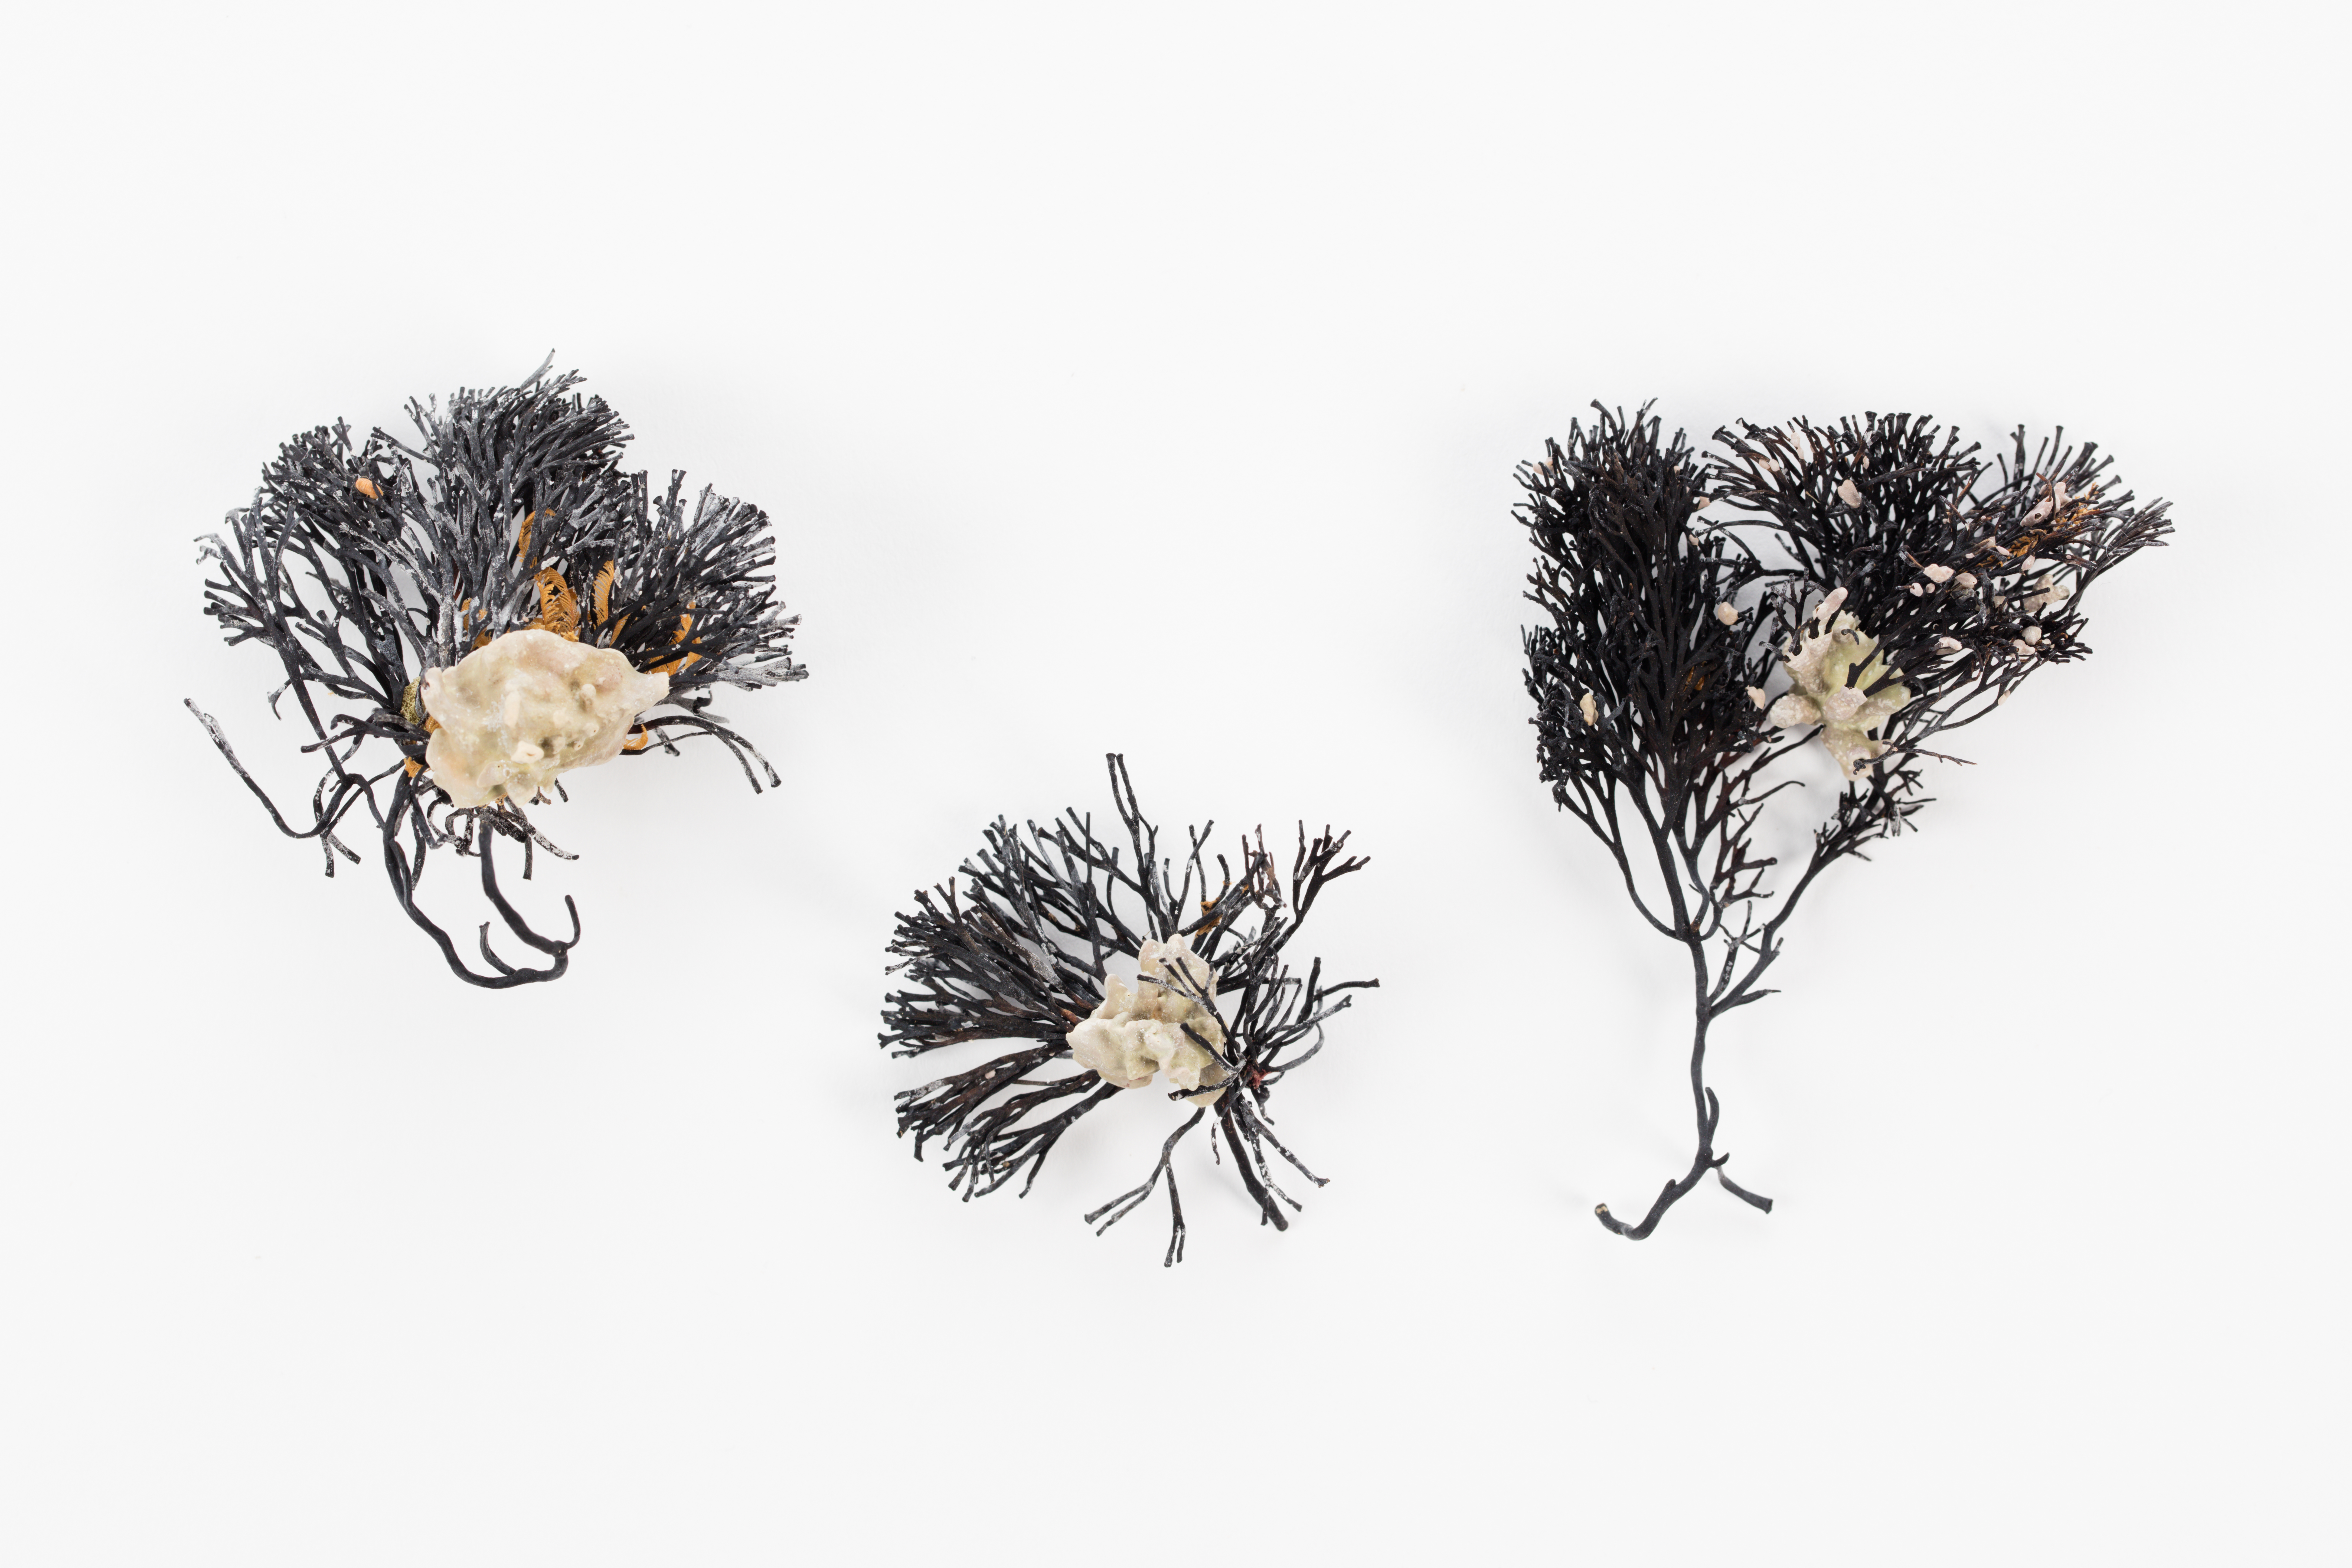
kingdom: Plantae
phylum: Rhodophyta
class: Florideophyceae
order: Corallinales
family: Corallinaceae
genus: Corallina
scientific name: Corallina
